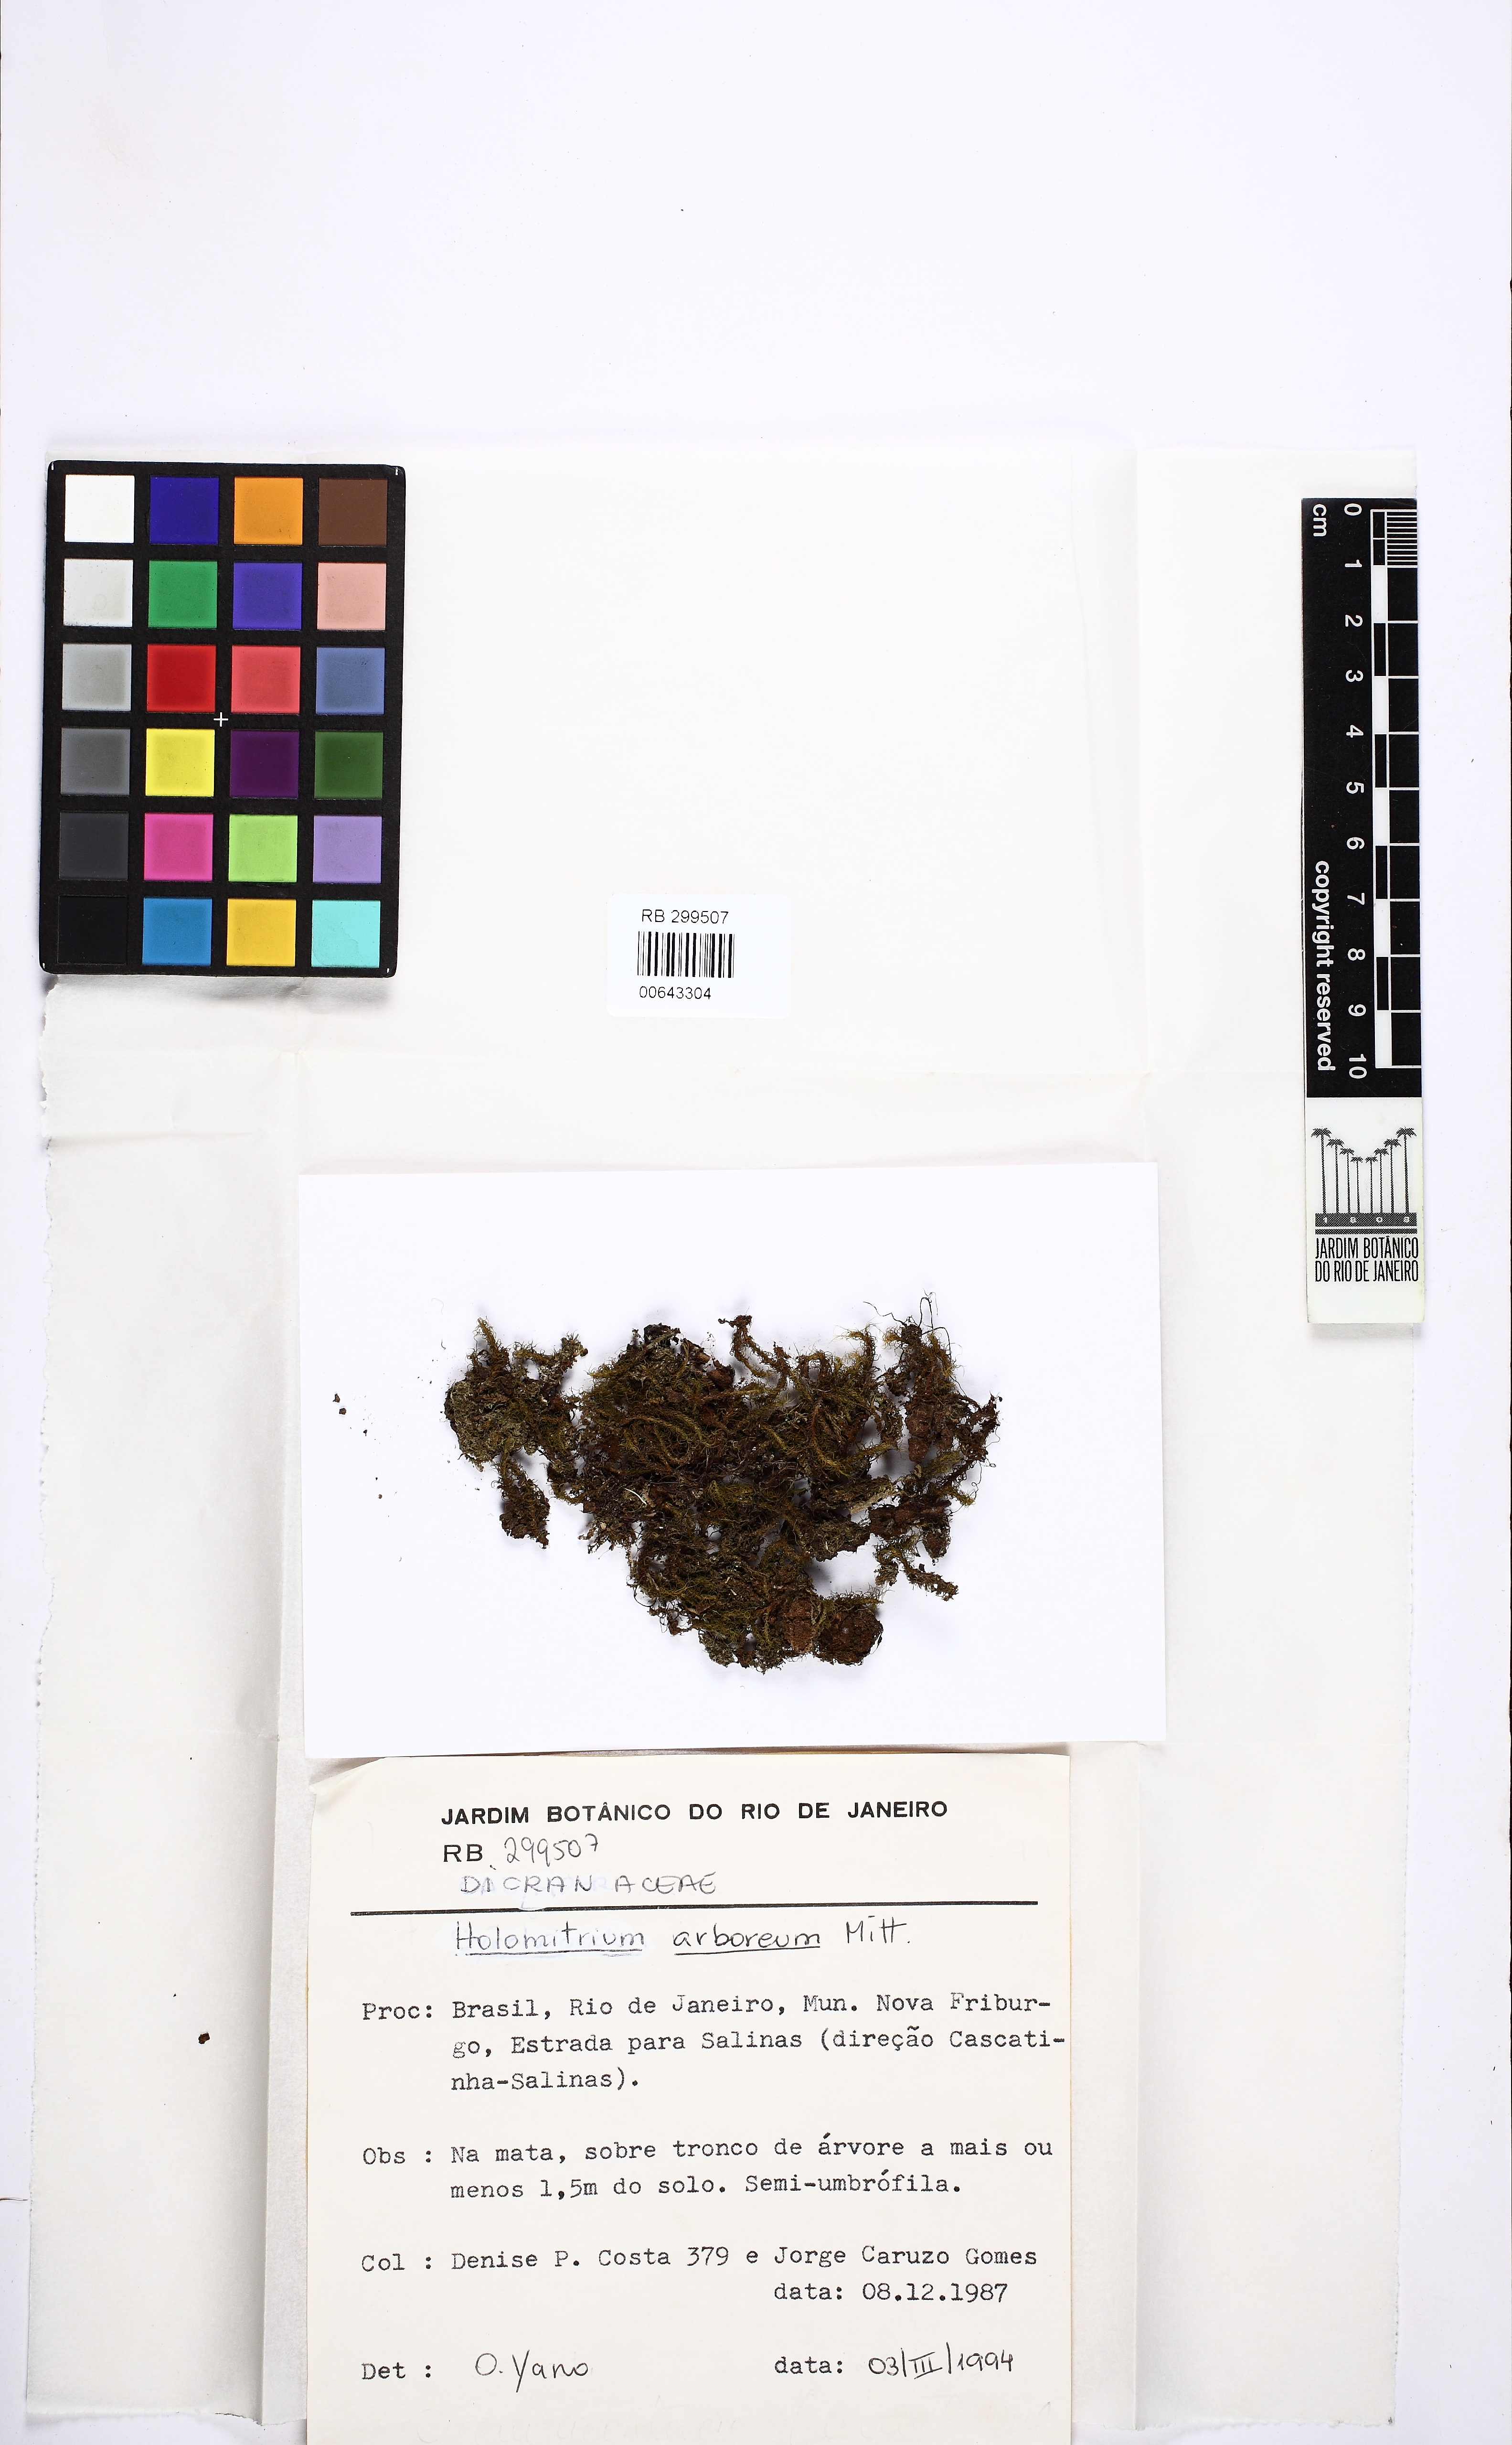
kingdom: Plantae
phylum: Bryophyta
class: Bryopsida
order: Dicranales
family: Dicranaceae
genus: Holomitrium
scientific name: Holomitrium arboreum
